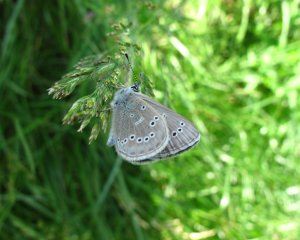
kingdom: Animalia
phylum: Arthropoda
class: Insecta
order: Lepidoptera
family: Lycaenidae
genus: Glaucopsyche
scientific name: Glaucopsyche lygdamus
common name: Silvery Blue
